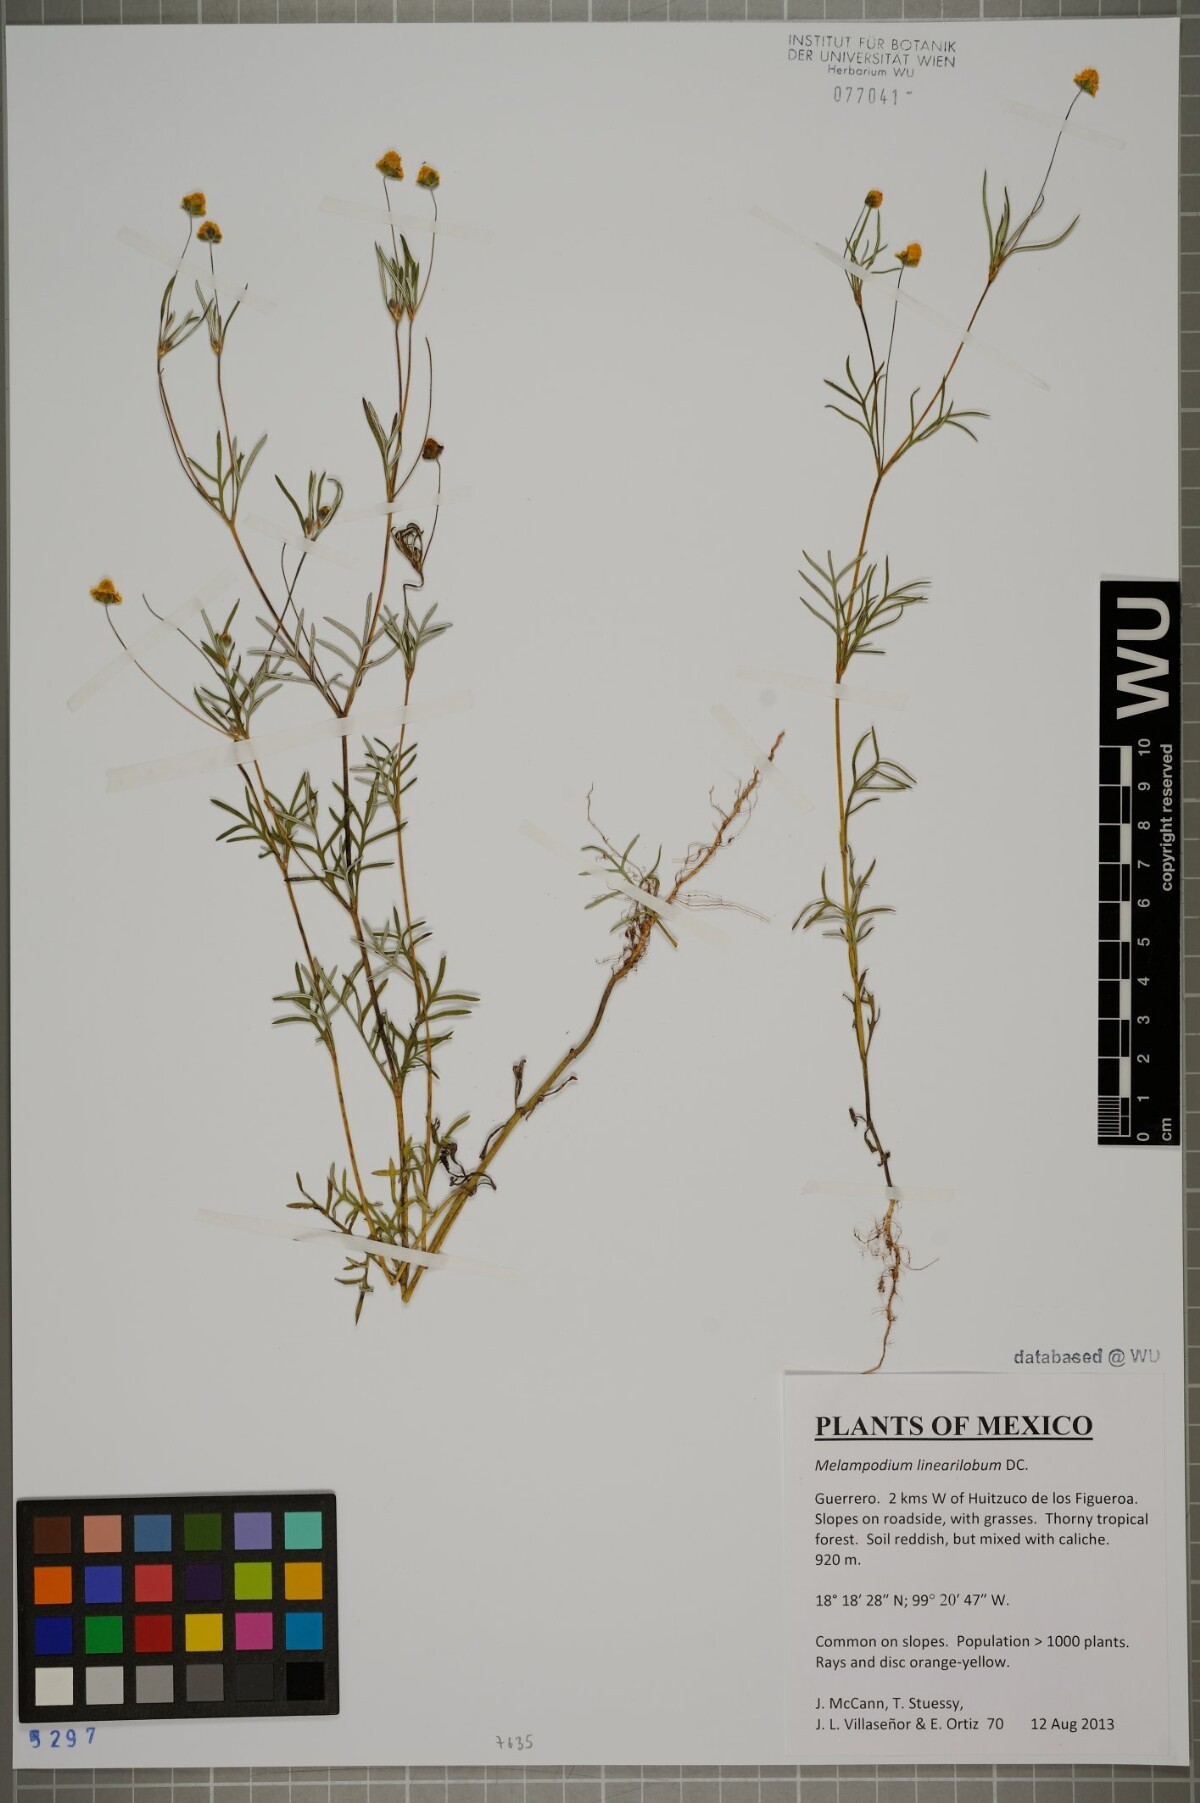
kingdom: Plantae
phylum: Tracheophyta
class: Magnoliopsida
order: Asterales
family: Asteraceae
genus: Melampodium
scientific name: Melampodium linearilobum
